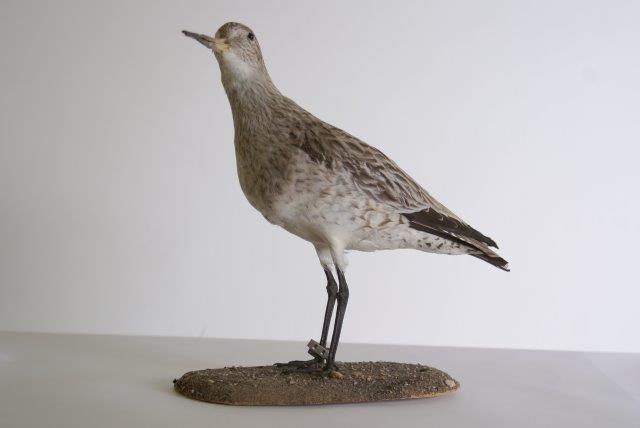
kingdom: Animalia
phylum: Chordata
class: Aves
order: Charadriiformes
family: Scolopacidae
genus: Limosa
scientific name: Limosa lapponica
